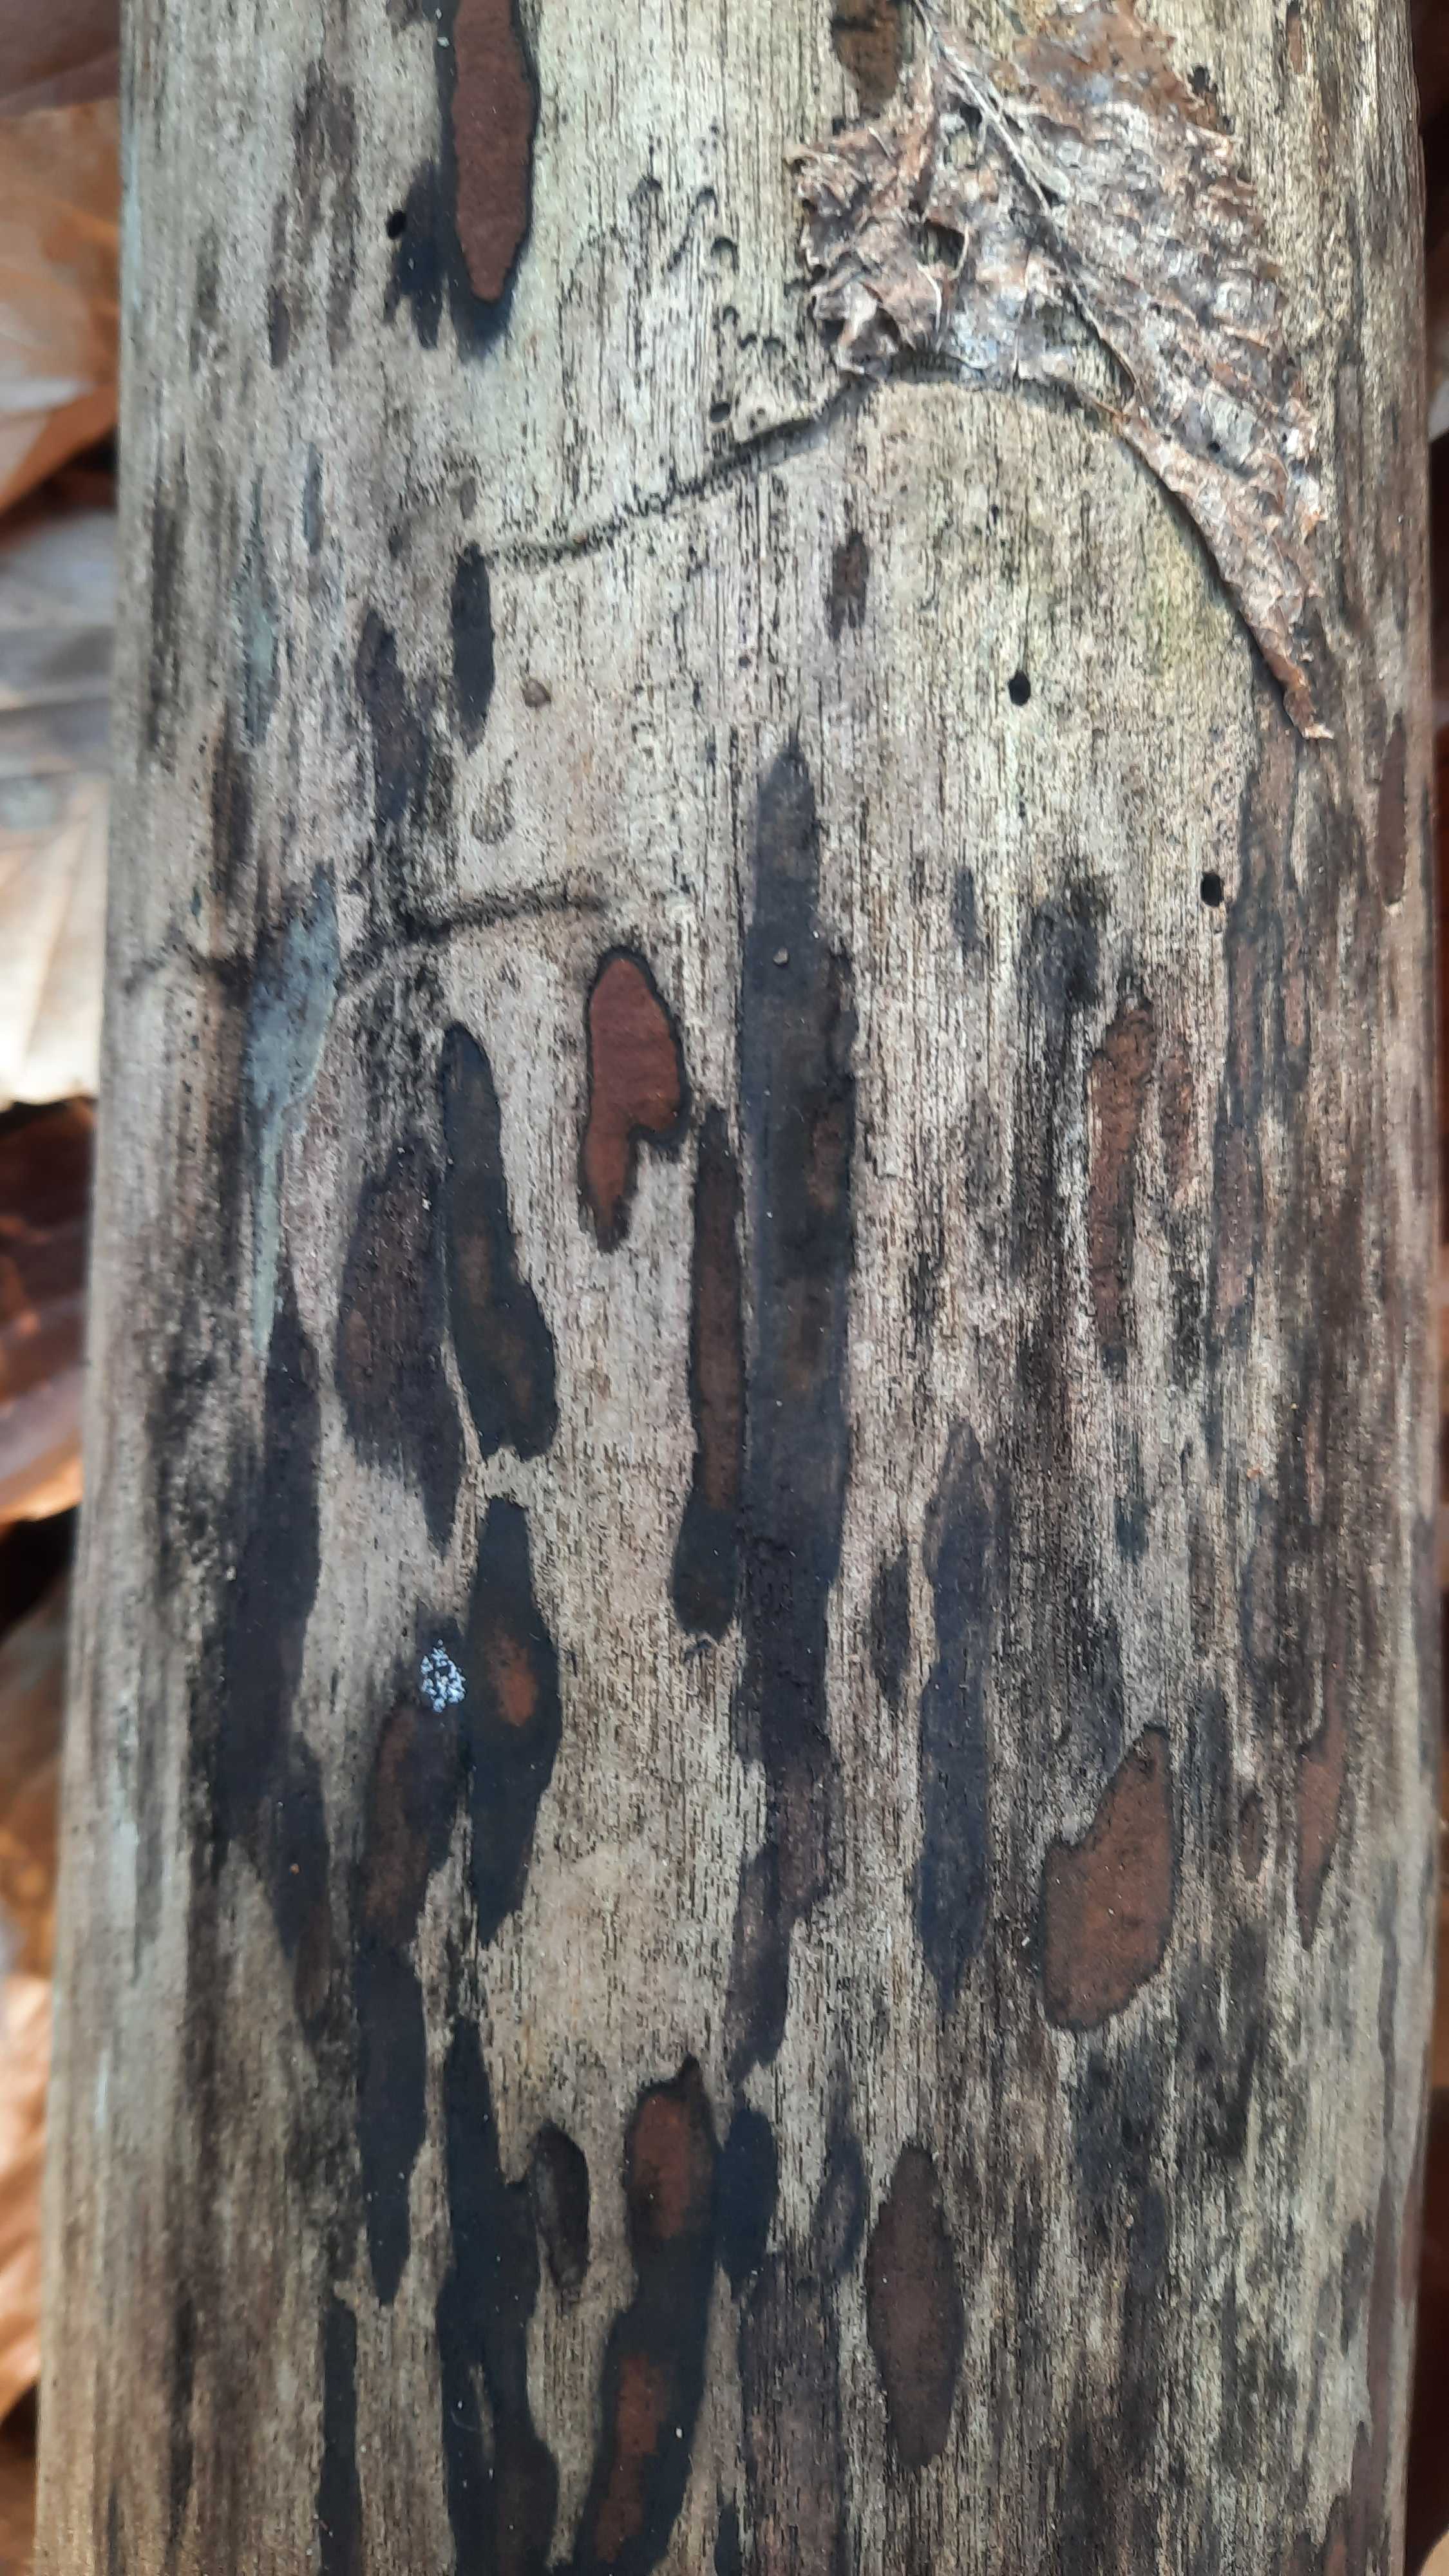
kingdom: Fungi
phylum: Ascomycota
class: Sordariomycetes
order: Xylariales
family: Hypoxylaceae
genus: Hypoxylon
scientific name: Hypoxylon petriniae
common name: nedsænket kulbær
